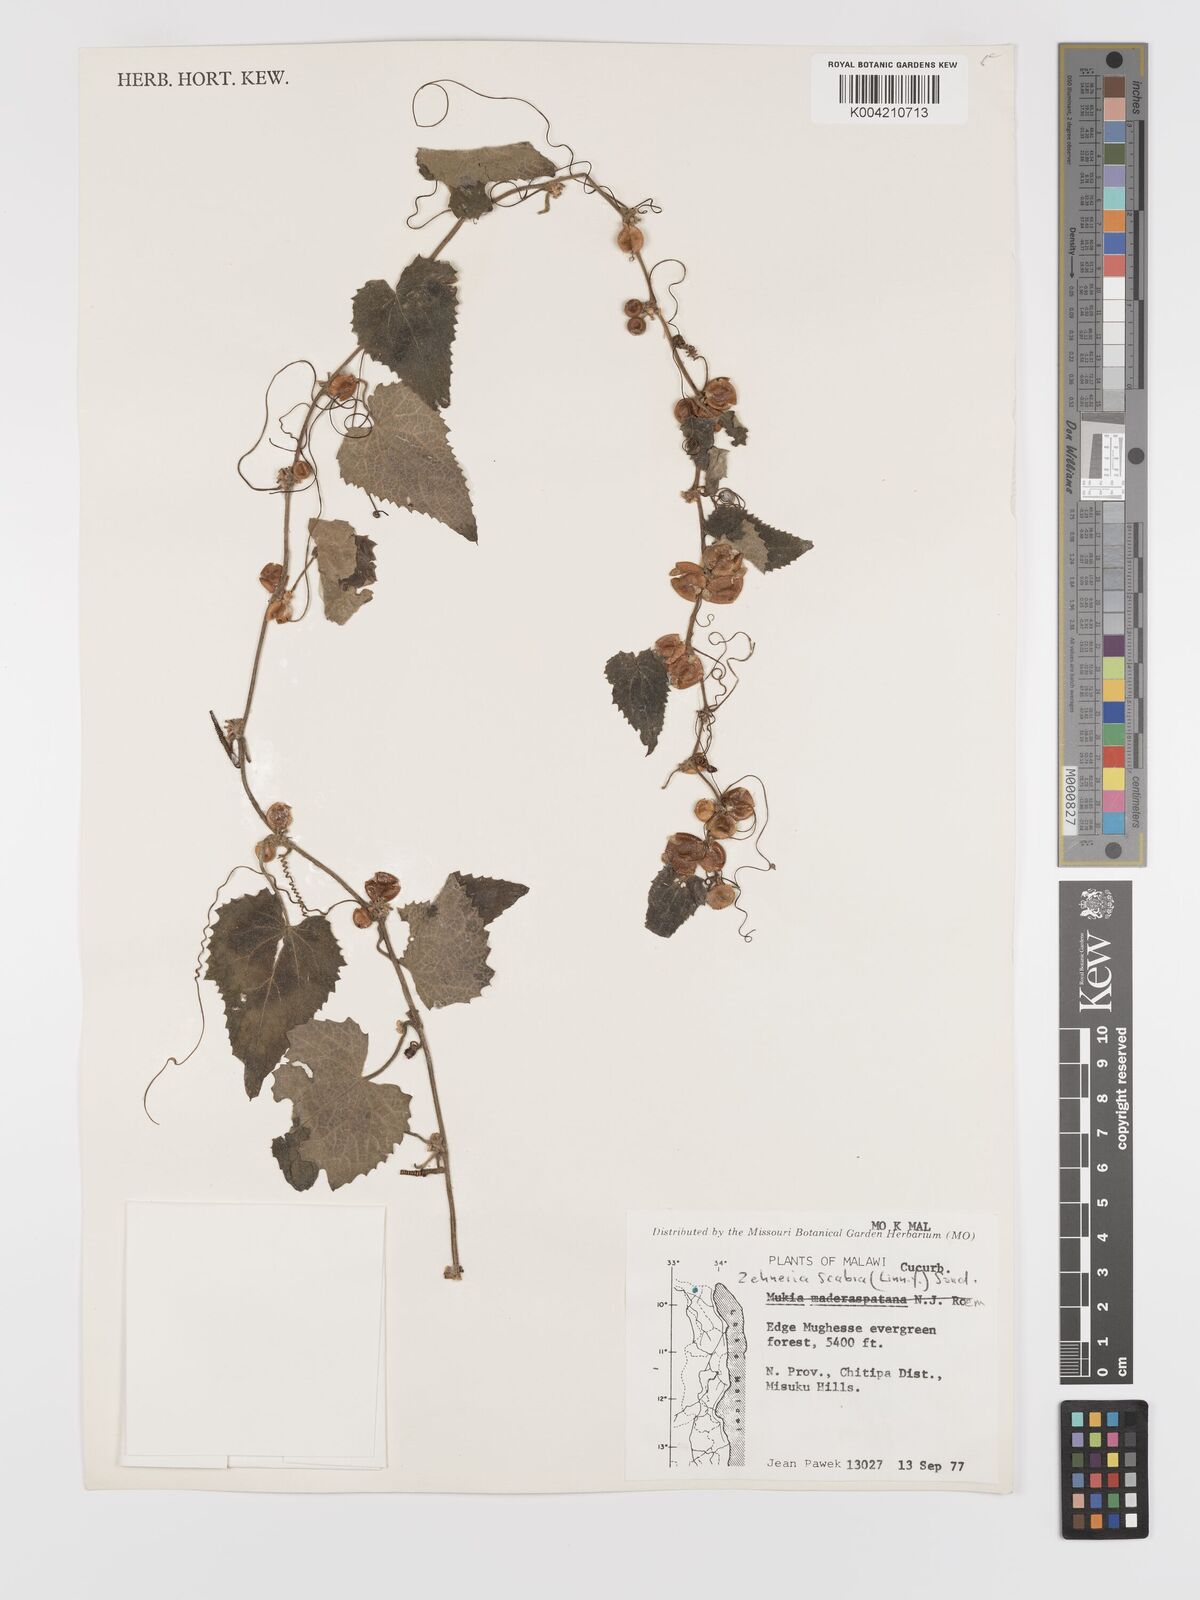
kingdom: Plantae
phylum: Tracheophyta
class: Magnoliopsida
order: Cucurbitales
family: Cucurbitaceae
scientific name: Cucurbitaceae
